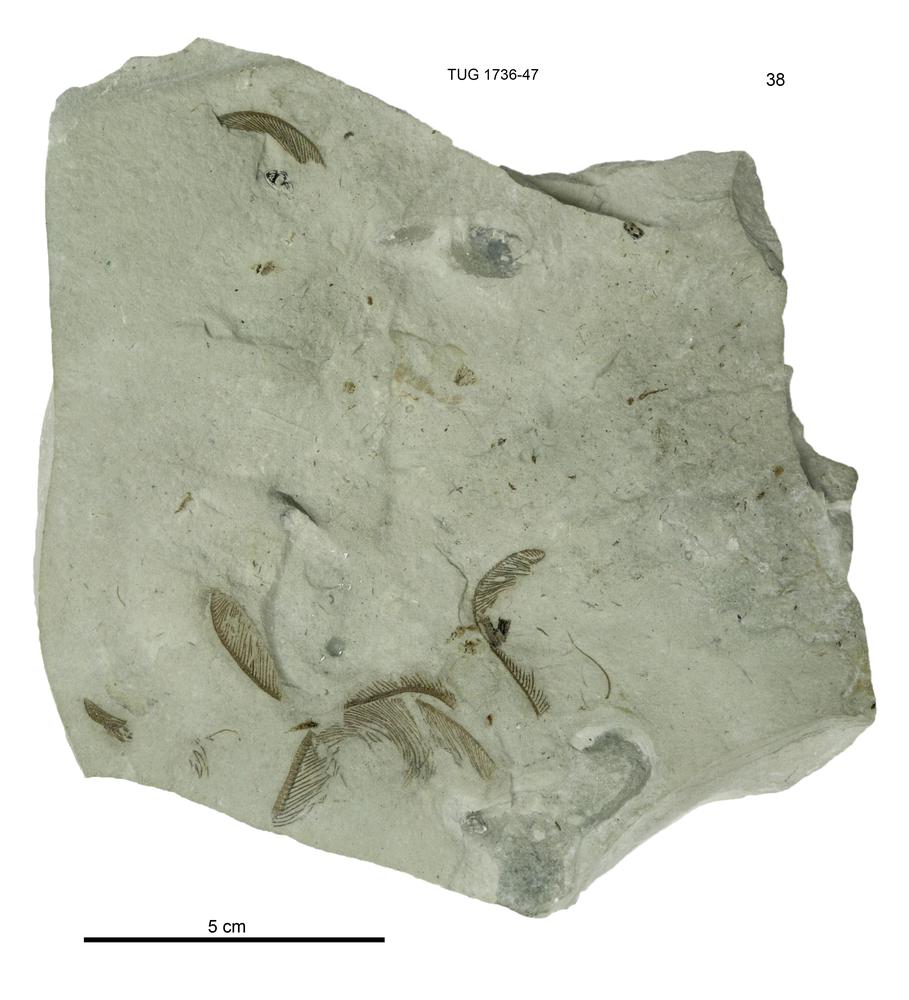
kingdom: Animalia
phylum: Echinodermata
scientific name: Echinodermata
